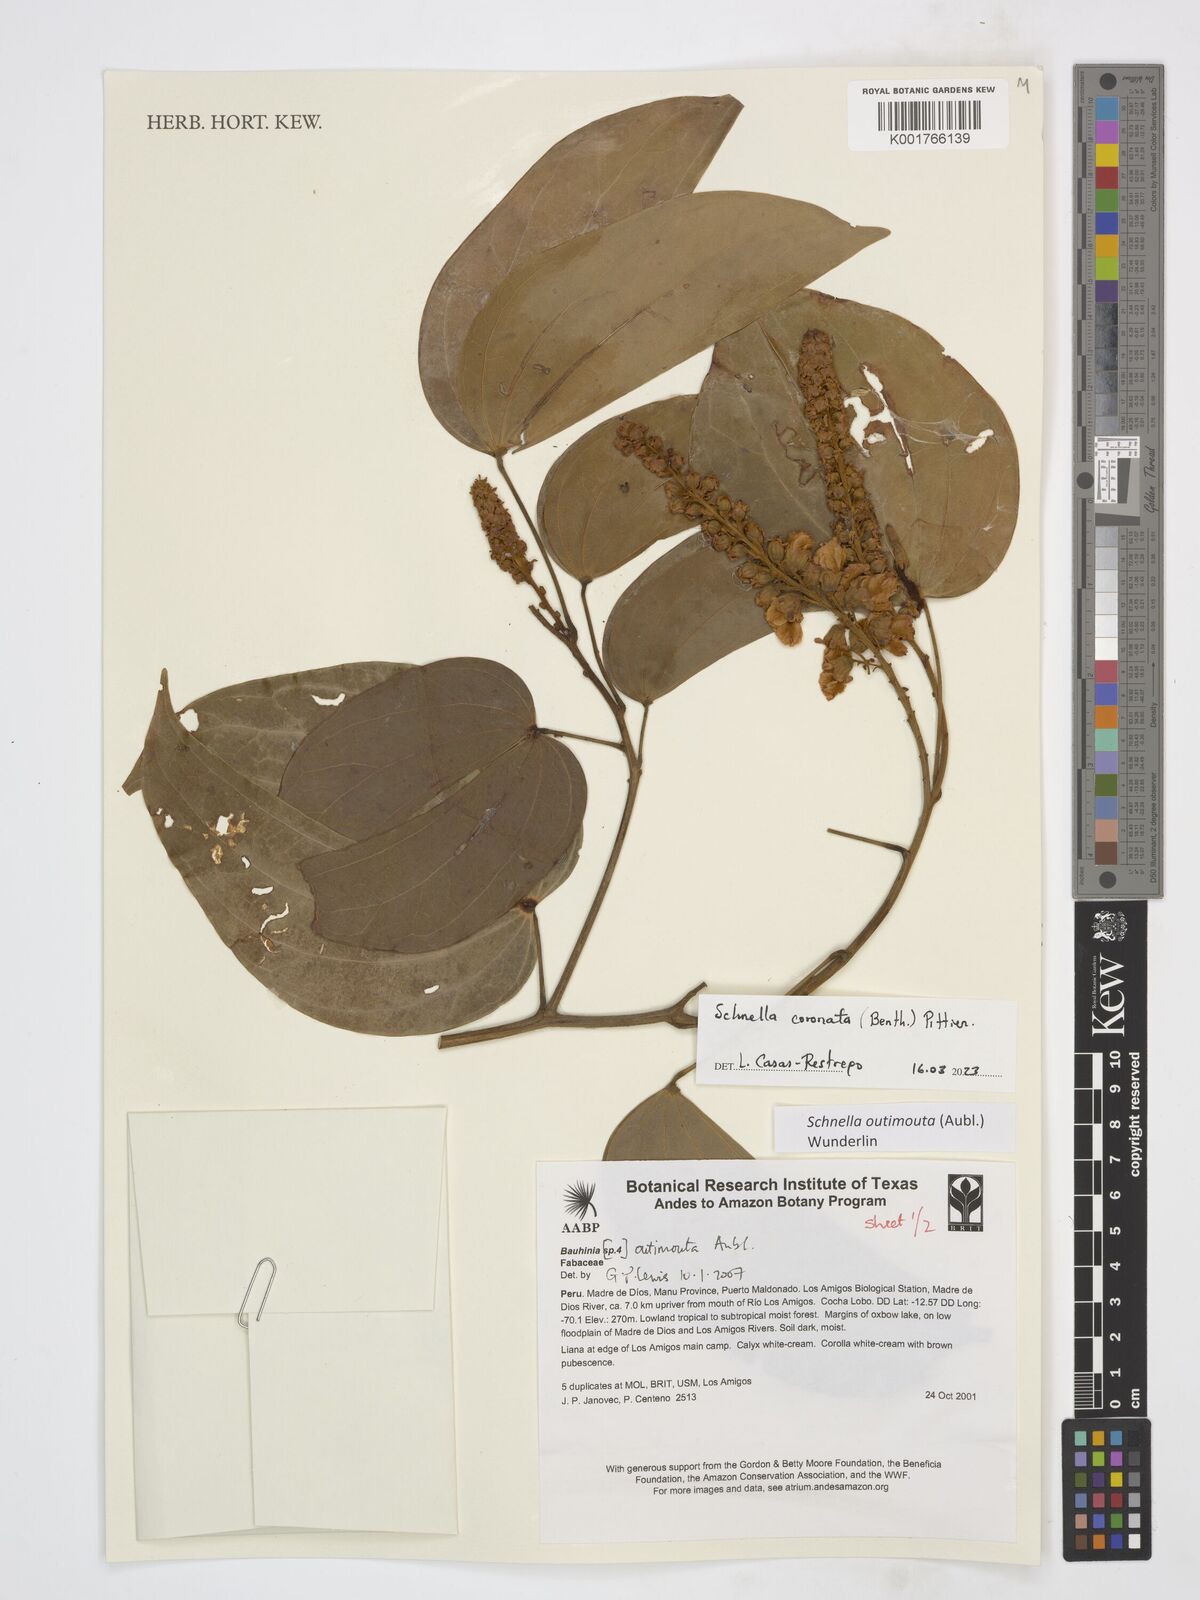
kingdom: Plantae
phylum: Tracheophyta
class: Magnoliopsida
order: Fabales
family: Fabaceae
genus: Schnella
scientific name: Schnella outimouta
